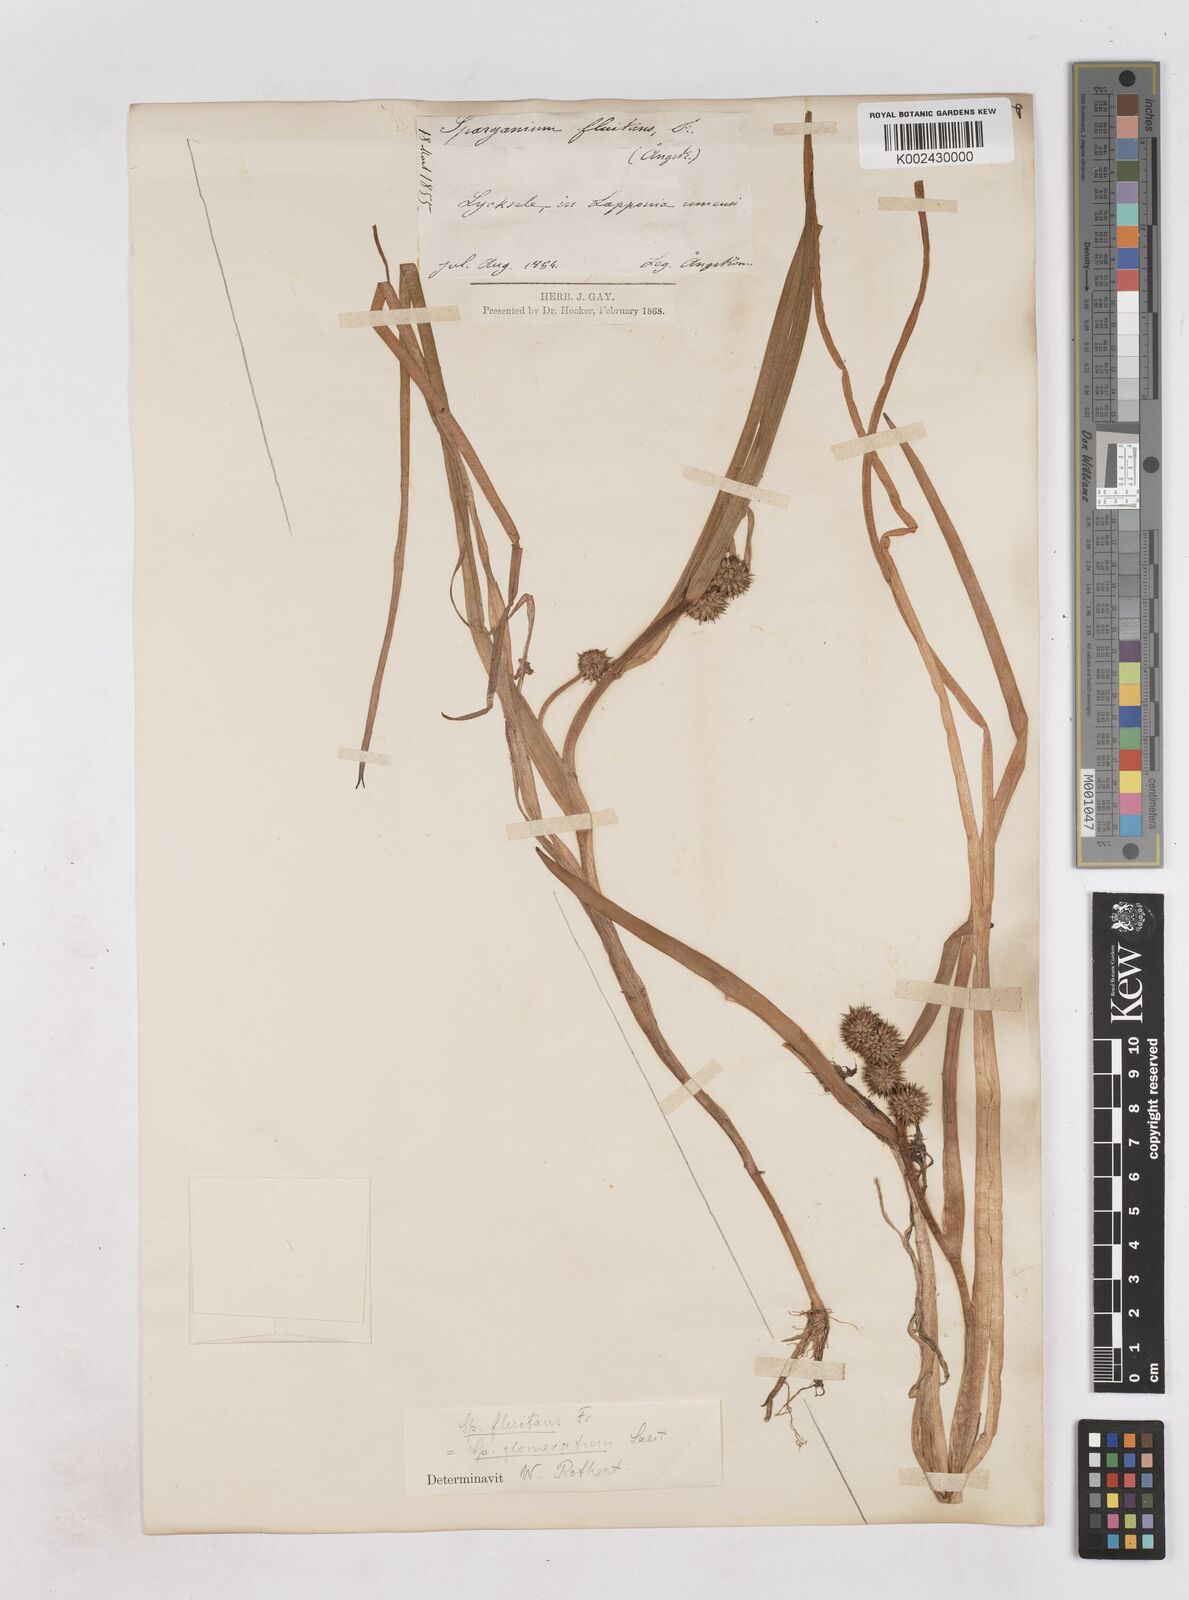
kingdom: Plantae
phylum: Tracheophyta
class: Liliopsida
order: Poales
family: Typhaceae
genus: Sparganium
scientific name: Sparganium angustifolium
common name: Floating bur-reed
